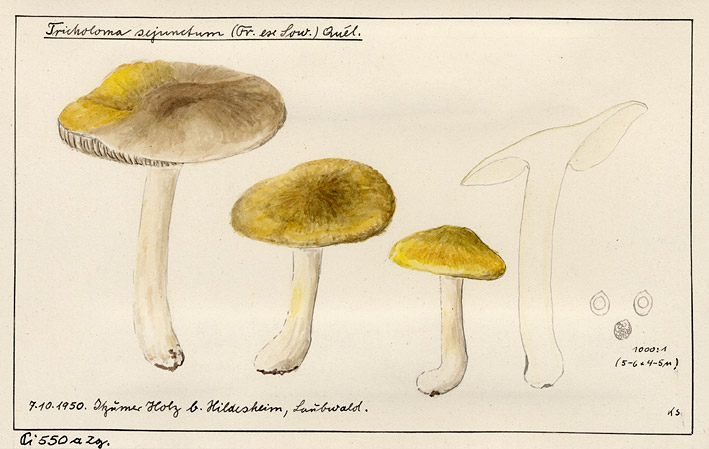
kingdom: Fungi
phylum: Basidiomycota
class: Agaricomycetes
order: Agaricales
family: Tricholomataceae
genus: Tricholoma
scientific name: Tricholoma sejunctum
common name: Deceiving knight
